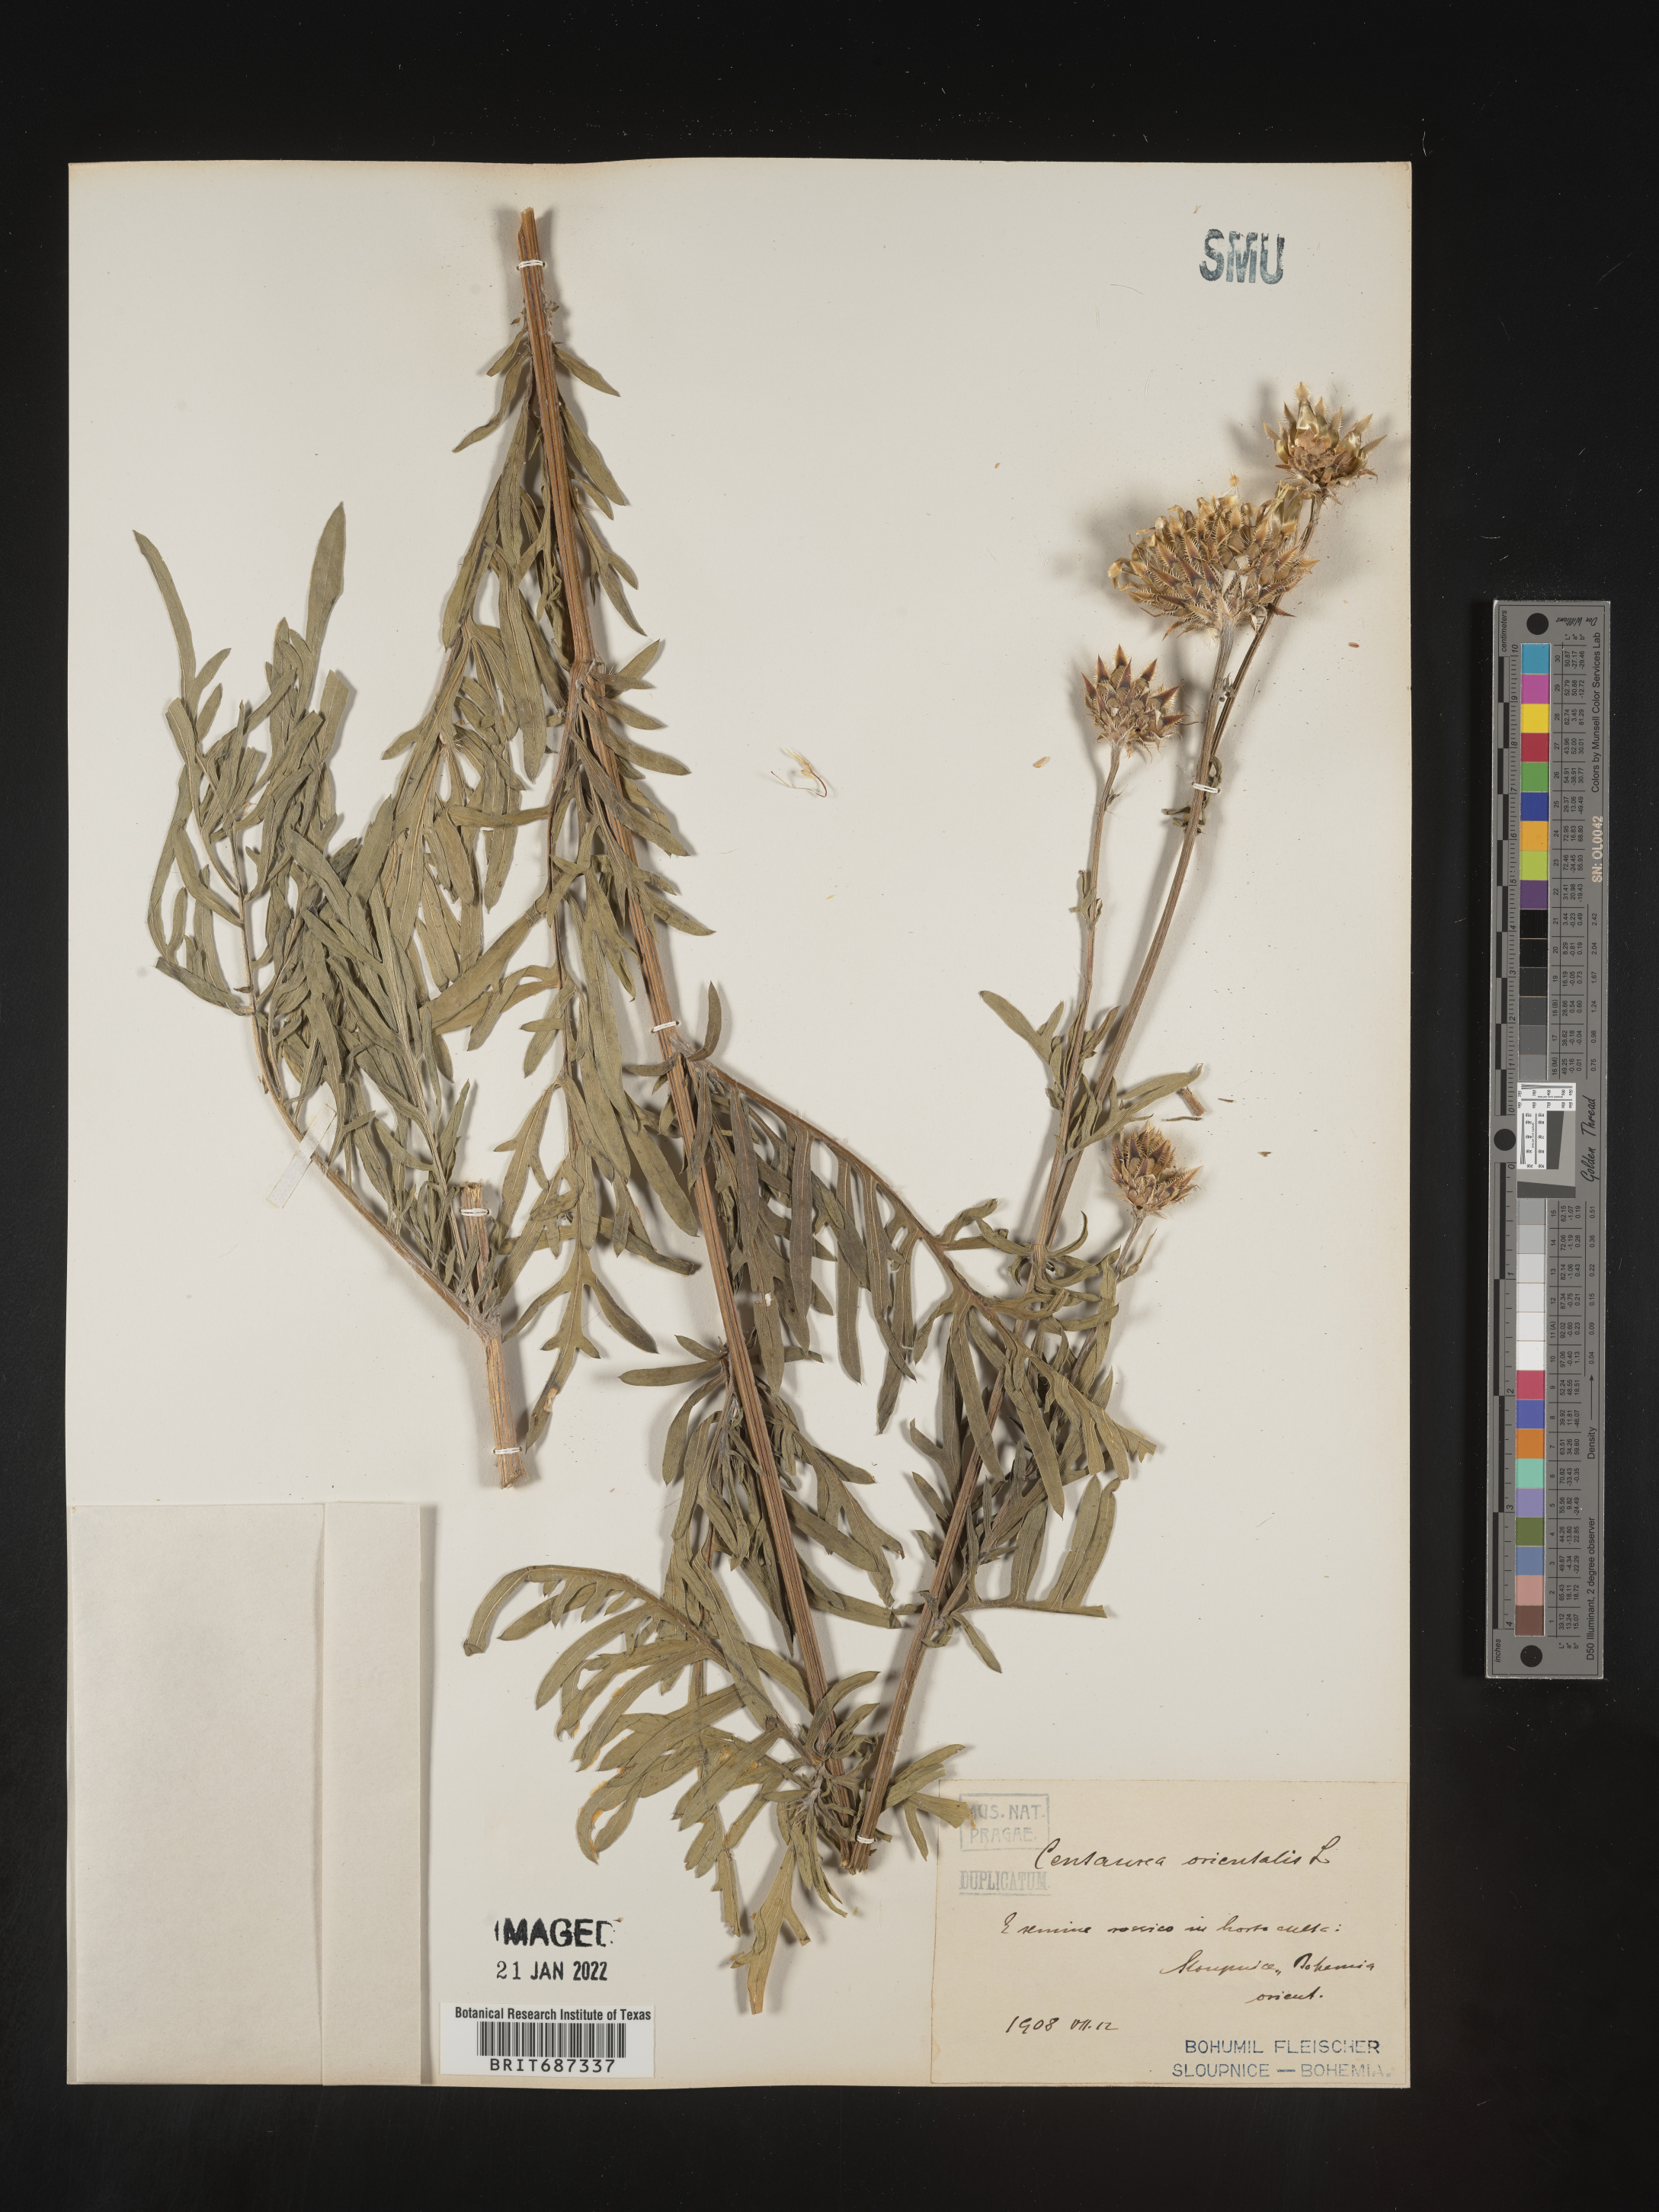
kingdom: Plantae
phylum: Tracheophyta
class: Magnoliopsida
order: Asterales
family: Asteraceae
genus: Centaurea
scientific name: Centaurea
